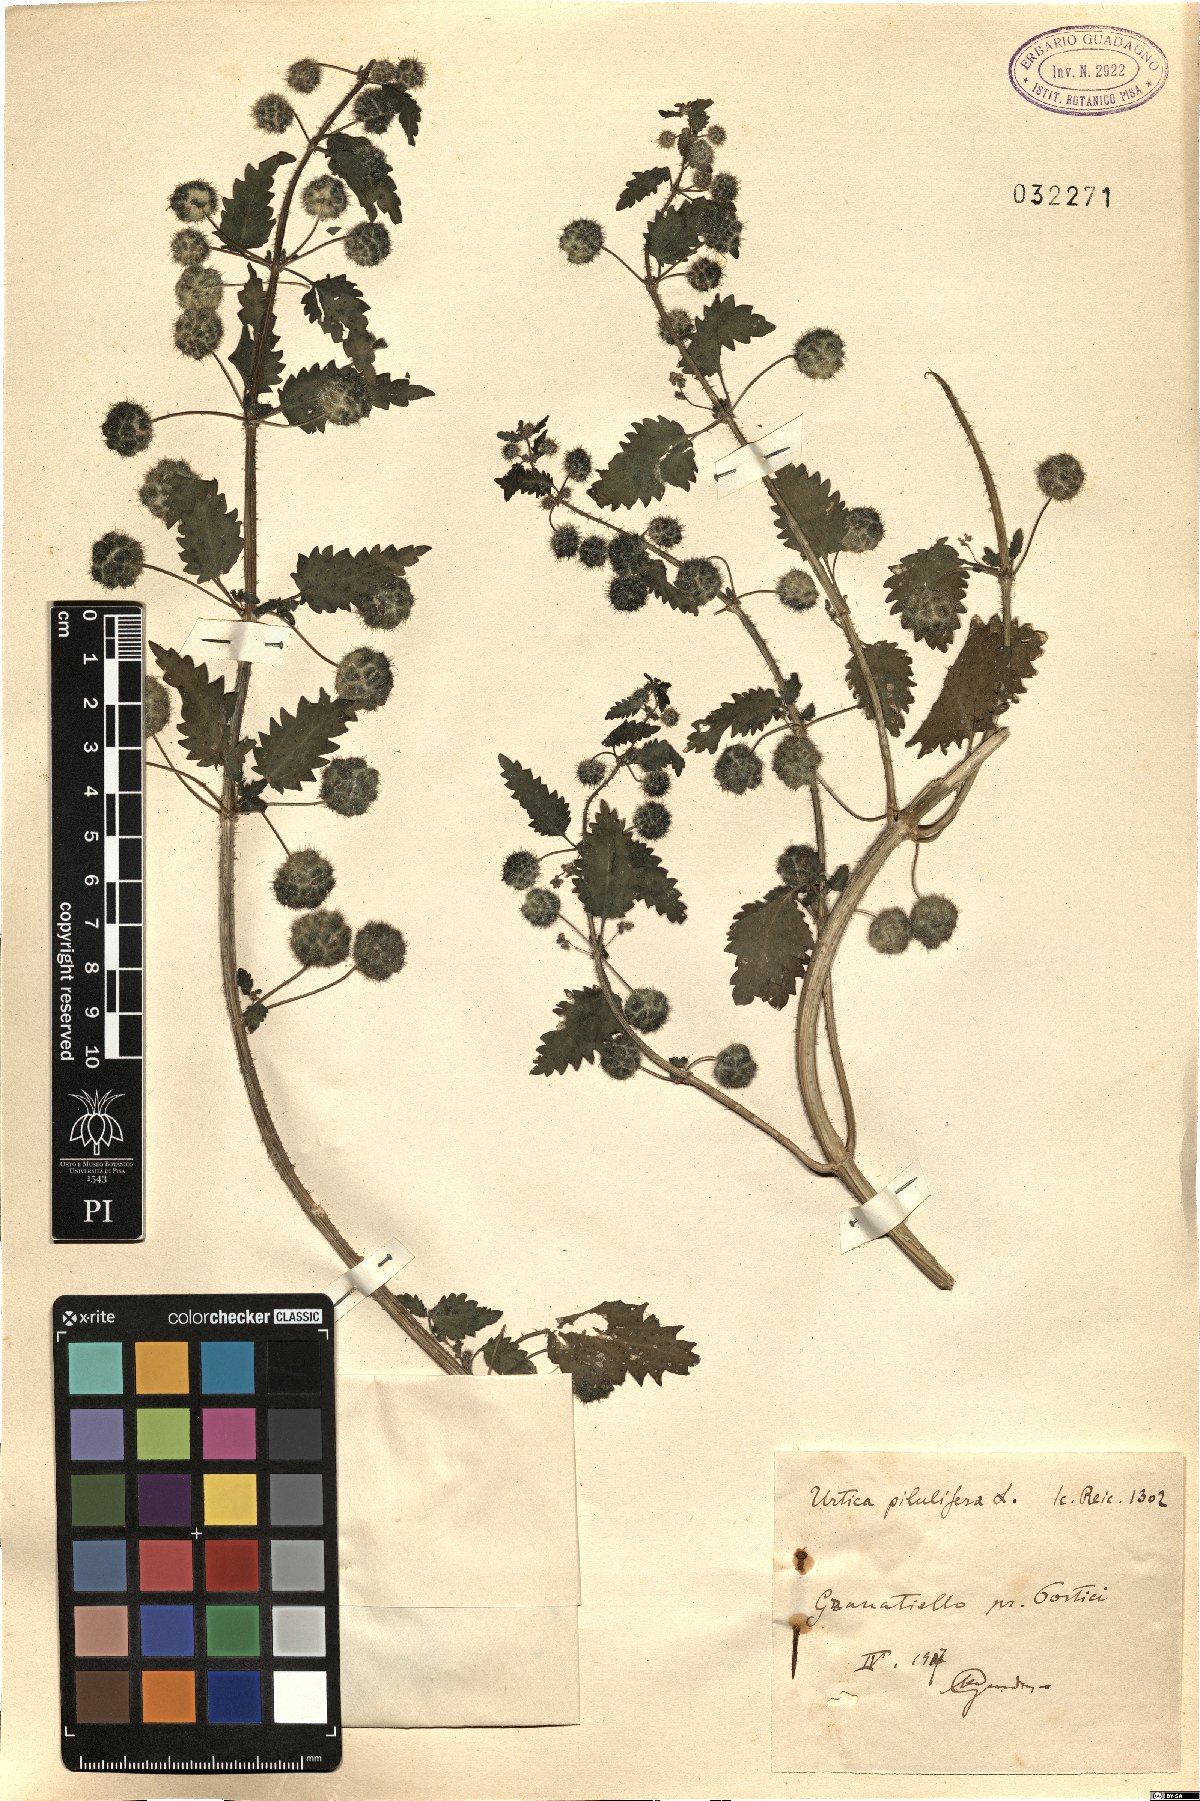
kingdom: Plantae
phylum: Tracheophyta
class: Magnoliopsida
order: Rosales
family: Urticaceae
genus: Urtica
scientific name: Urtica pilulifera
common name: Roman nettle
